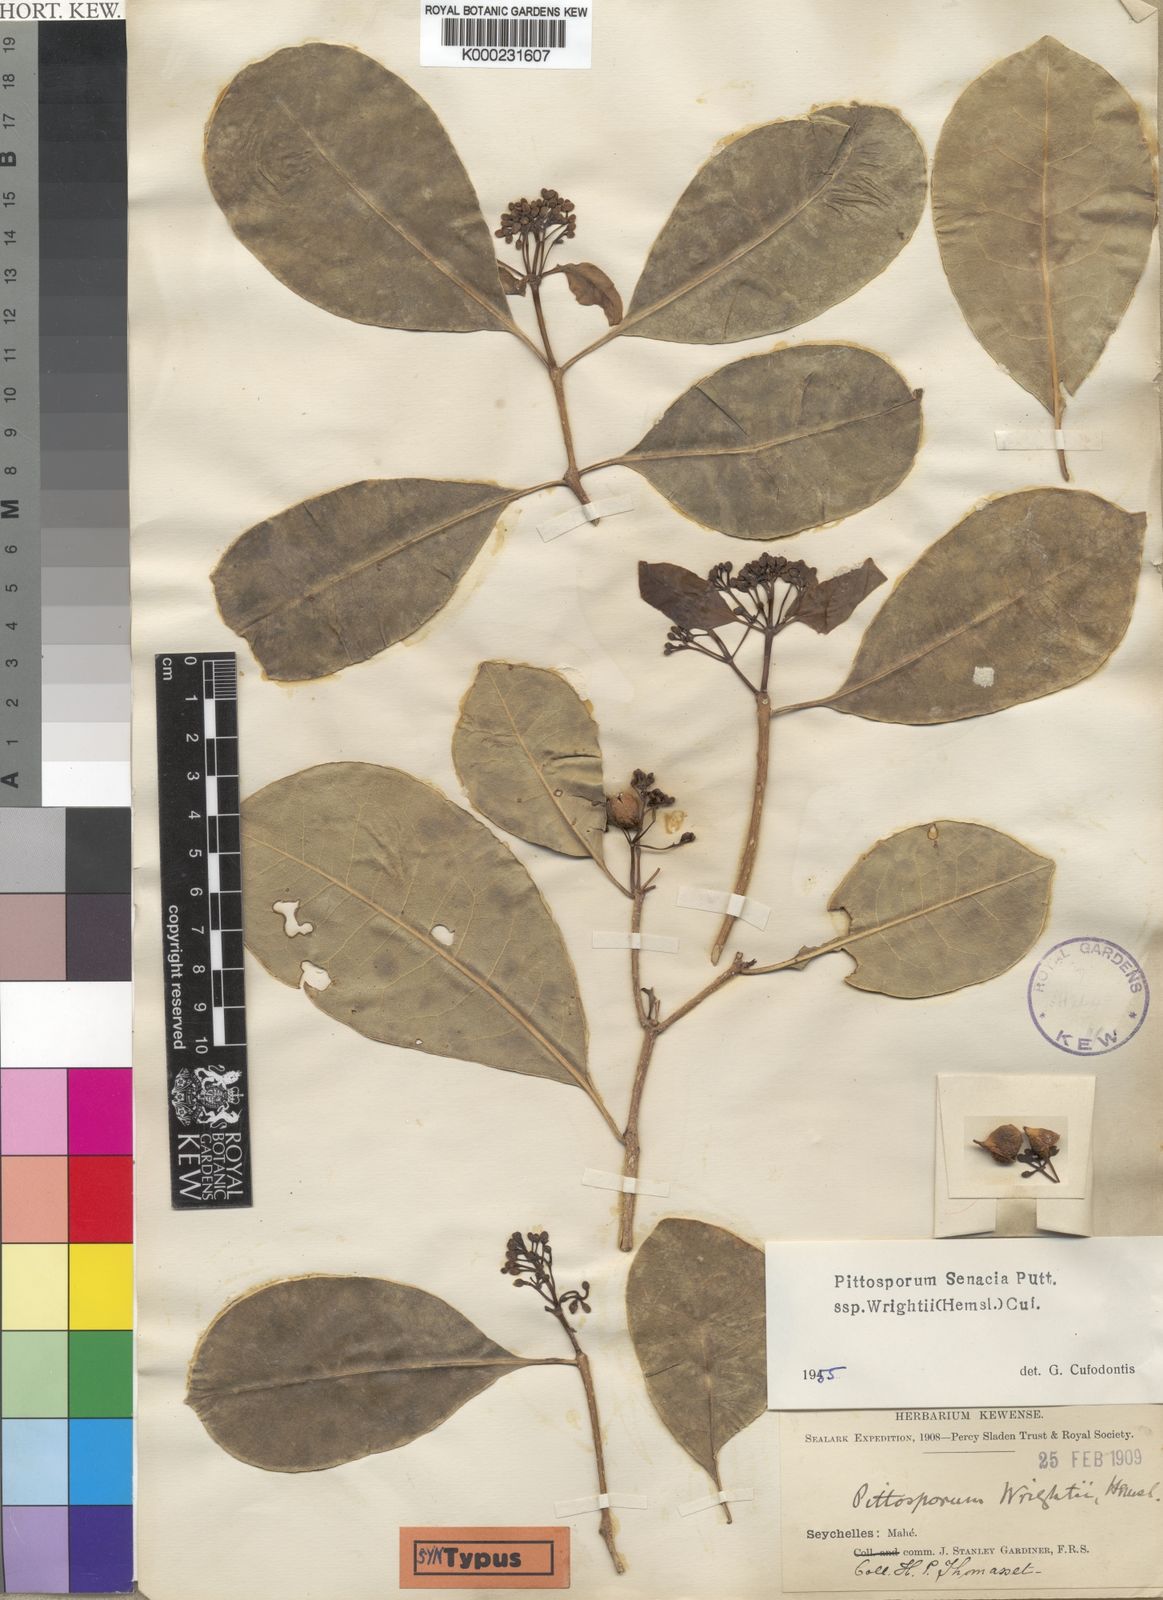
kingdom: Plantae
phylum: Tracheophyta
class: Magnoliopsida
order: Apiales
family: Pittosporaceae
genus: Pittosporum
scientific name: Pittosporum senacia
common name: Cheesewood
